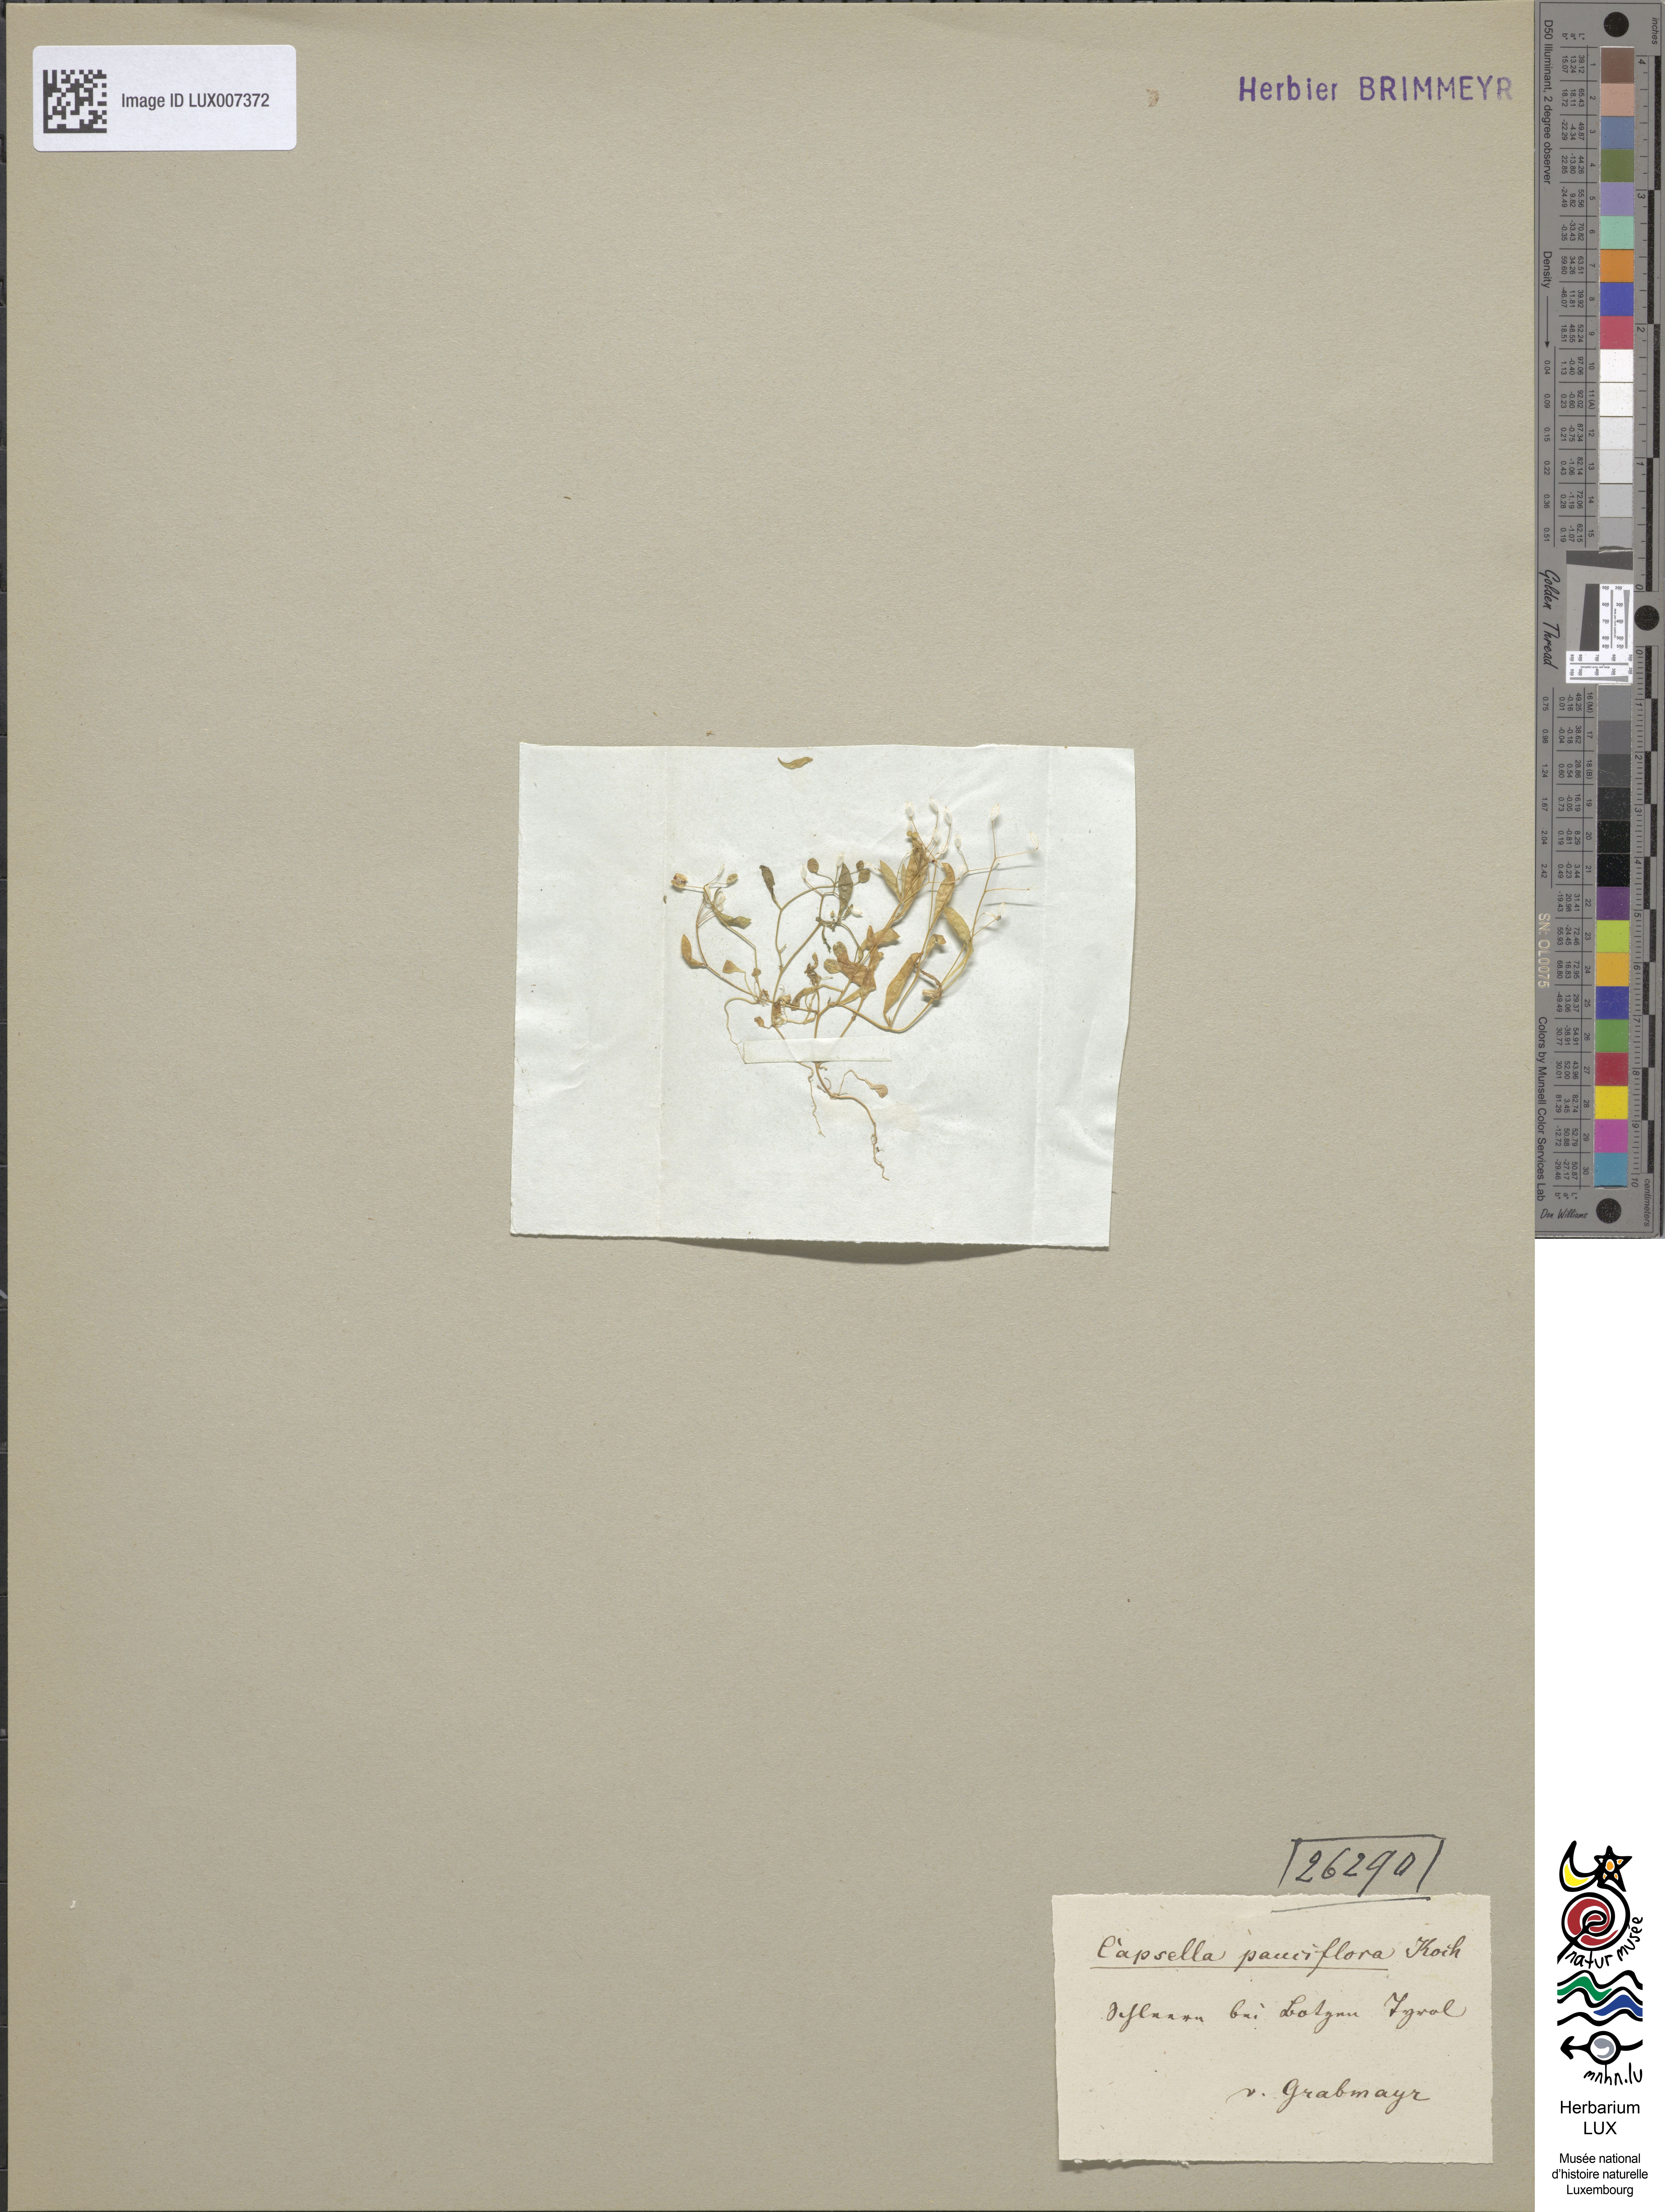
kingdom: Plantae
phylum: Tracheophyta
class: Magnoliopsida
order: Brassicales
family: Brassicaceae
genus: Hornungia
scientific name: Hornungia procumbens
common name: Oval purse
